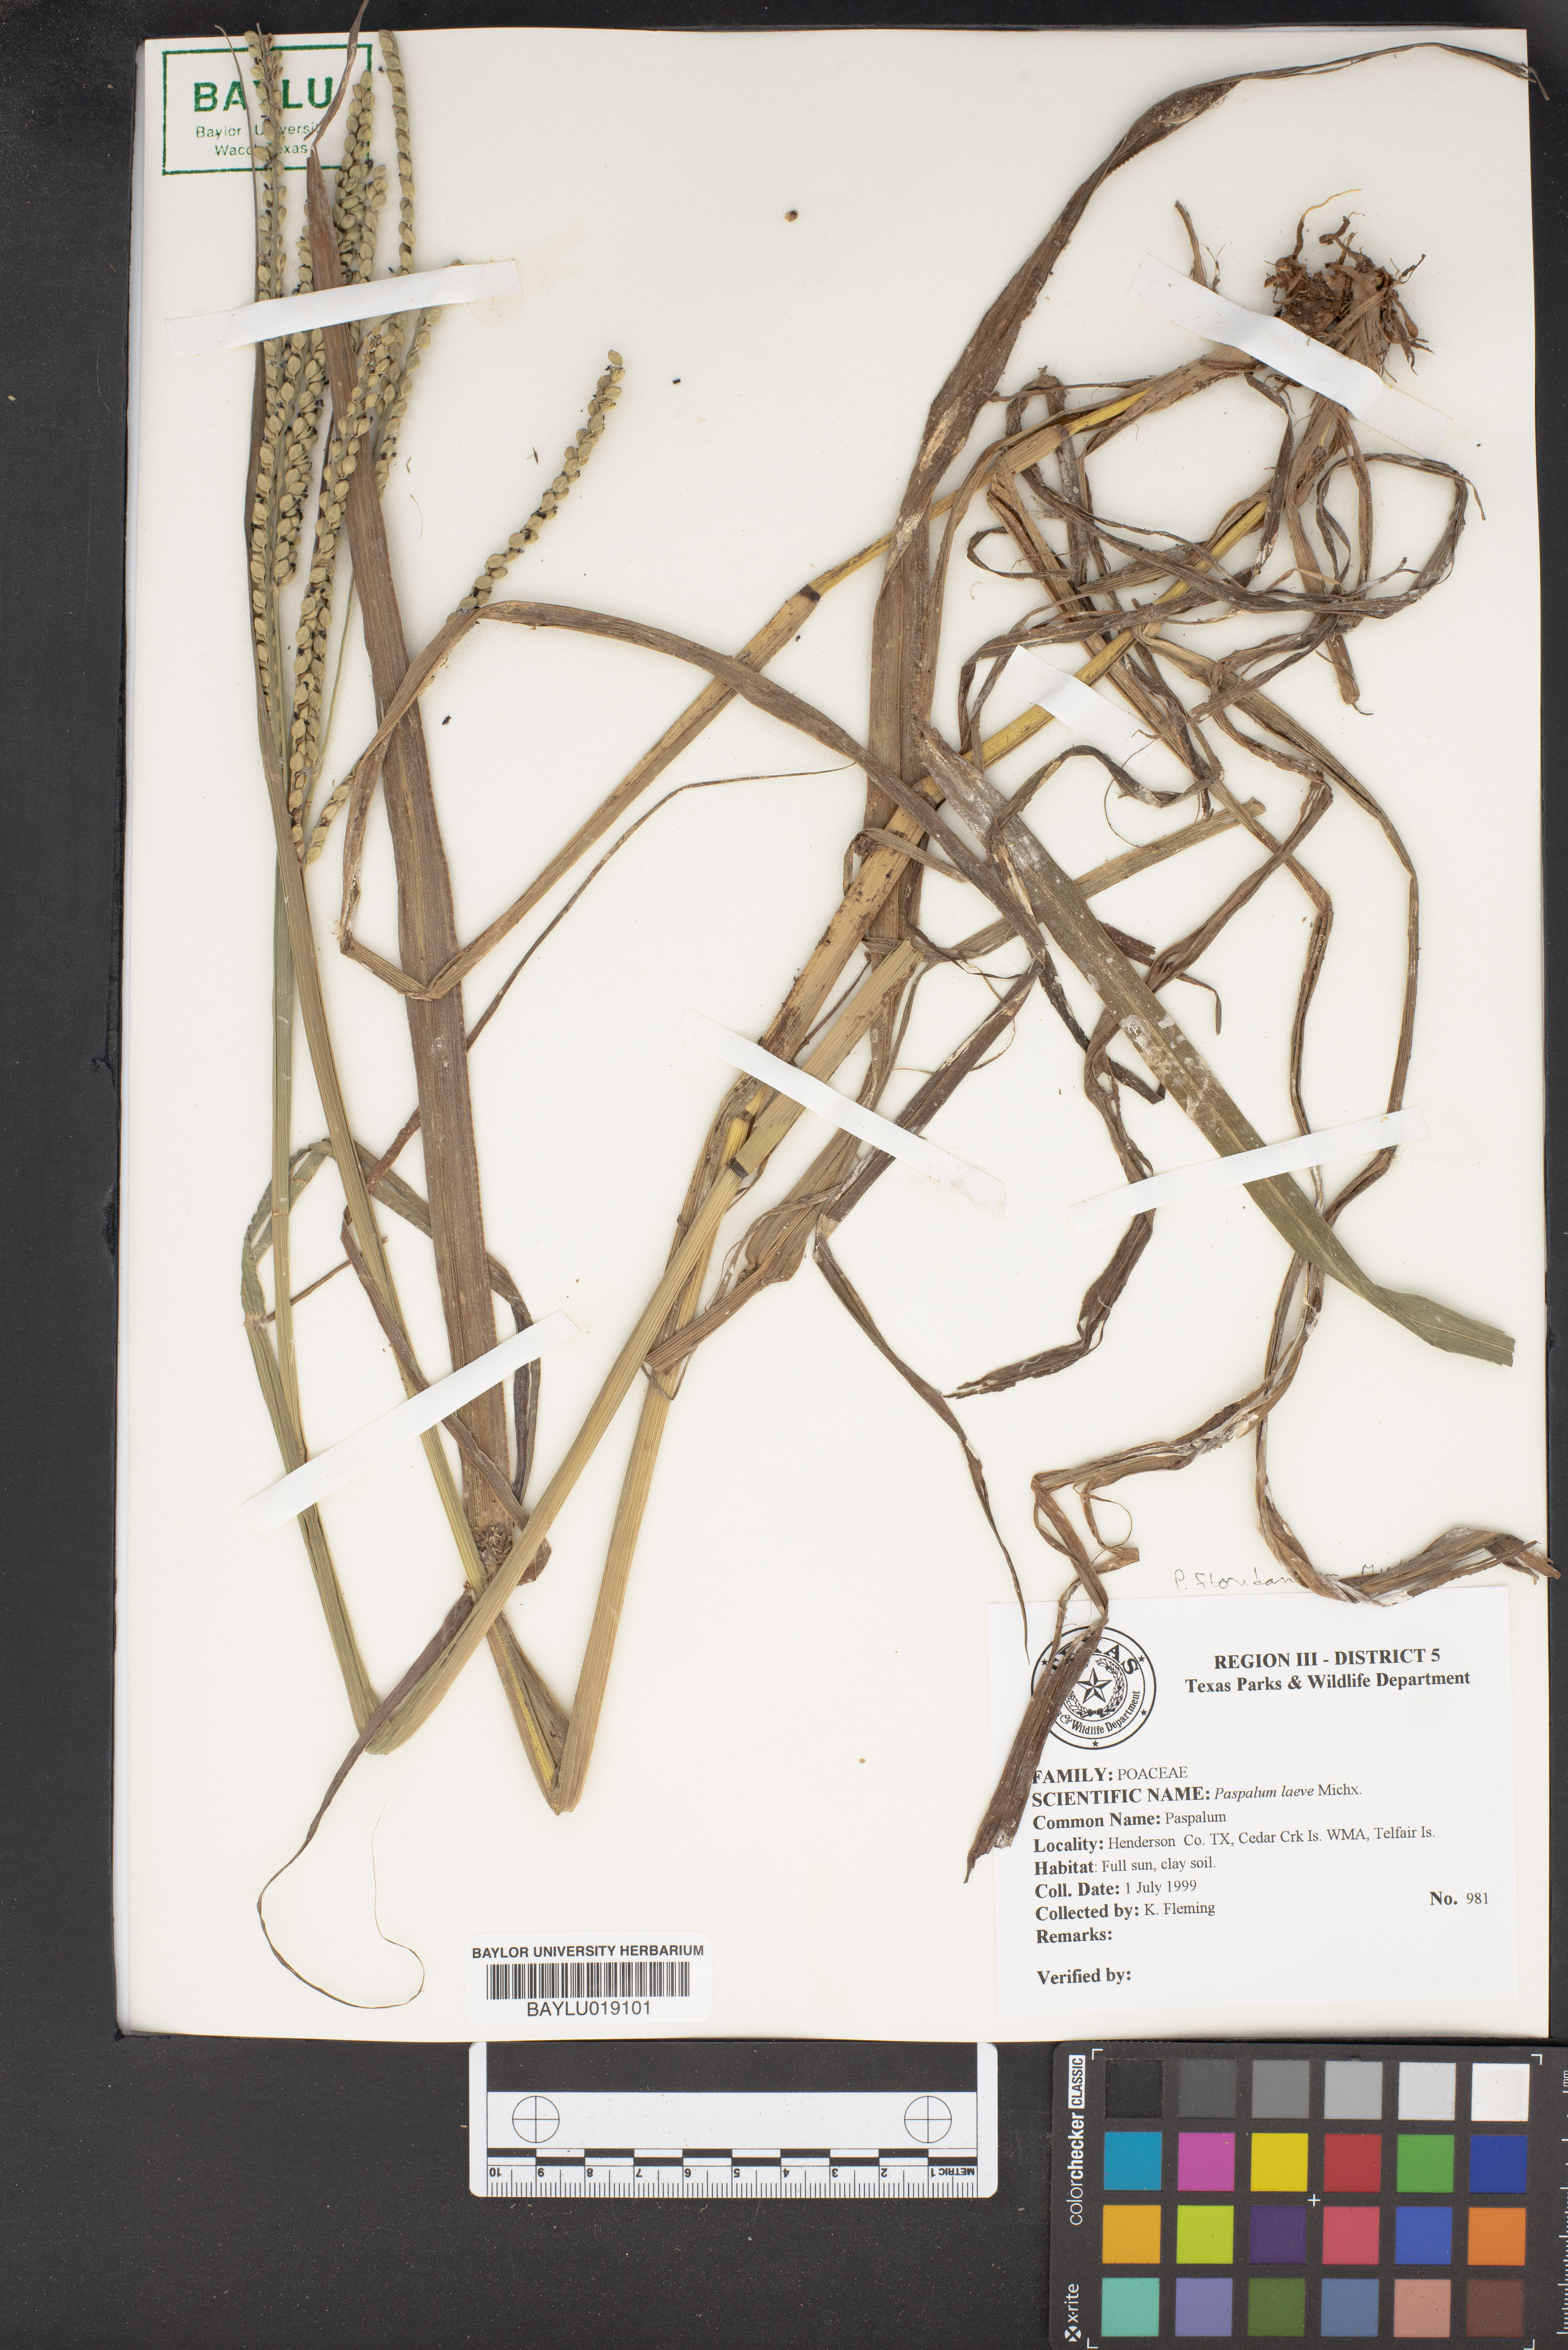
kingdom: Plantae
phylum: Tracheophyta
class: Liliopsida
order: Poales
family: Poaceae
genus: Paspalum
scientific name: Paspalum laeve
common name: Field paspalum
